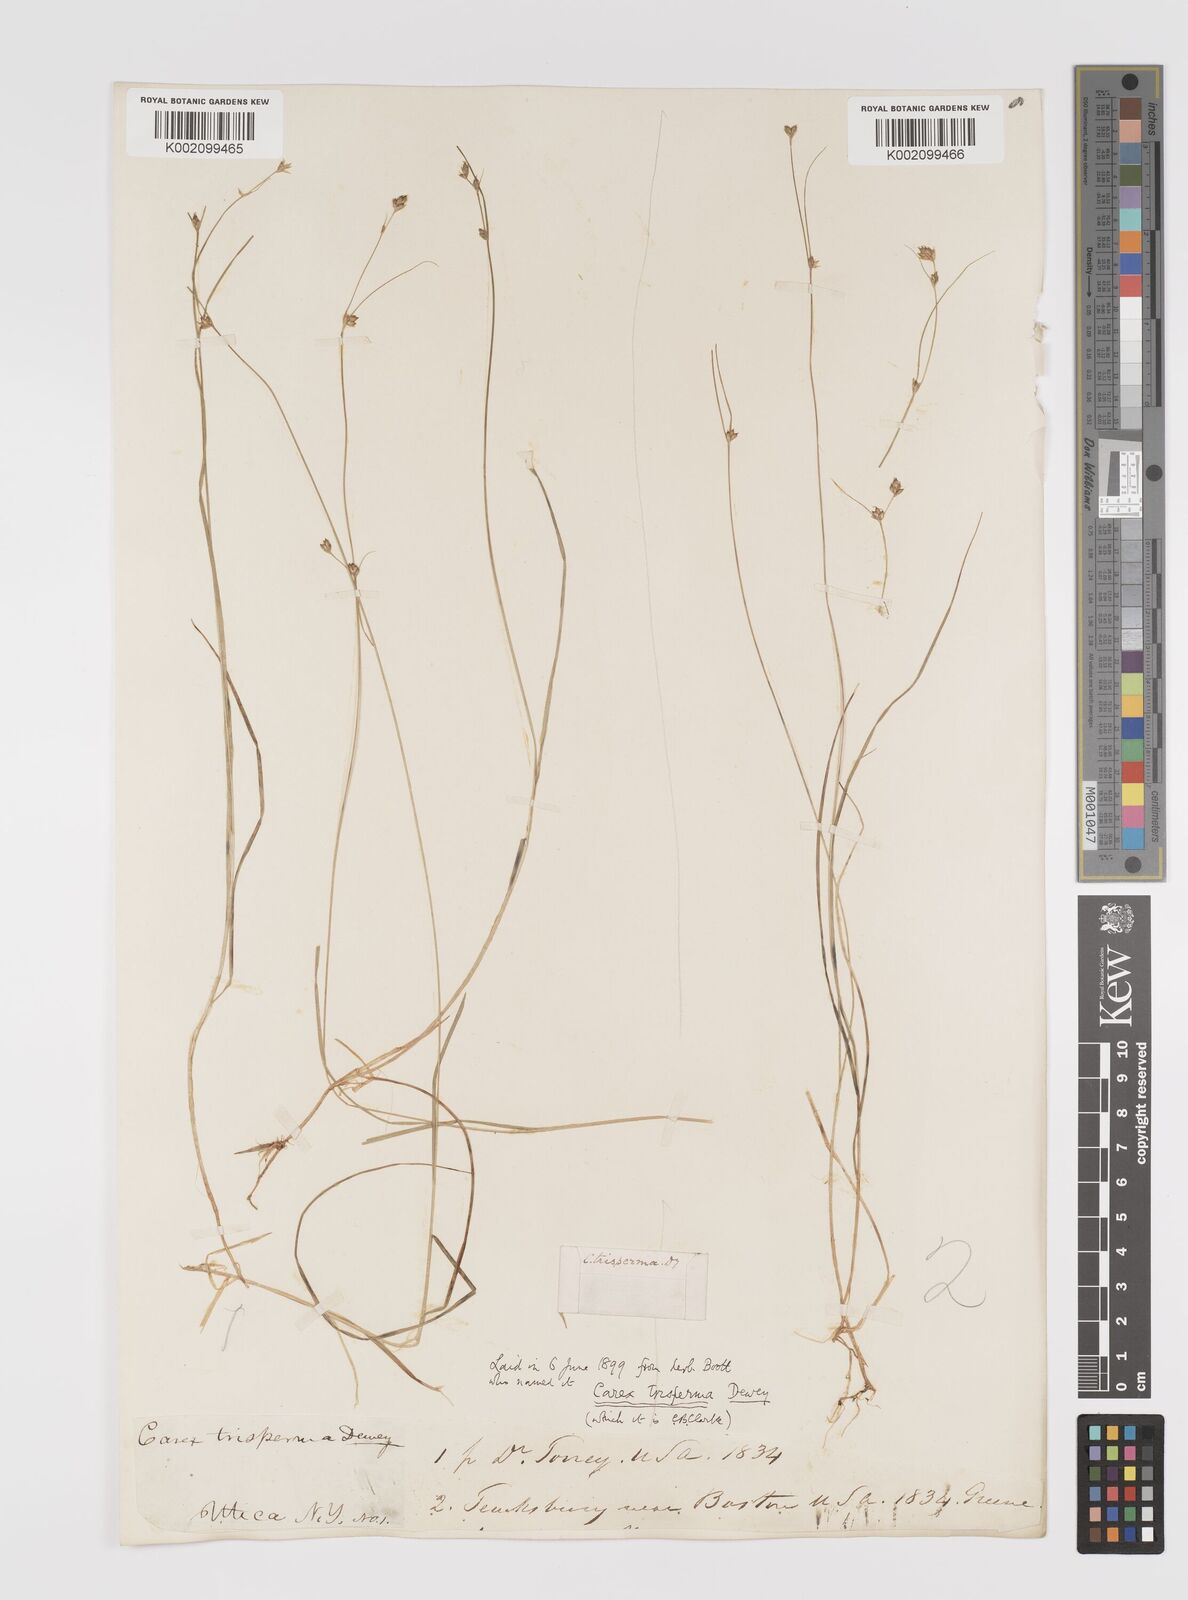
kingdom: Plantae
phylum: Tracheophyta
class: Liliopsida
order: Poales
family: Cyperaceae
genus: Carex
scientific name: Carex trisperma
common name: Three-seeded sedge
